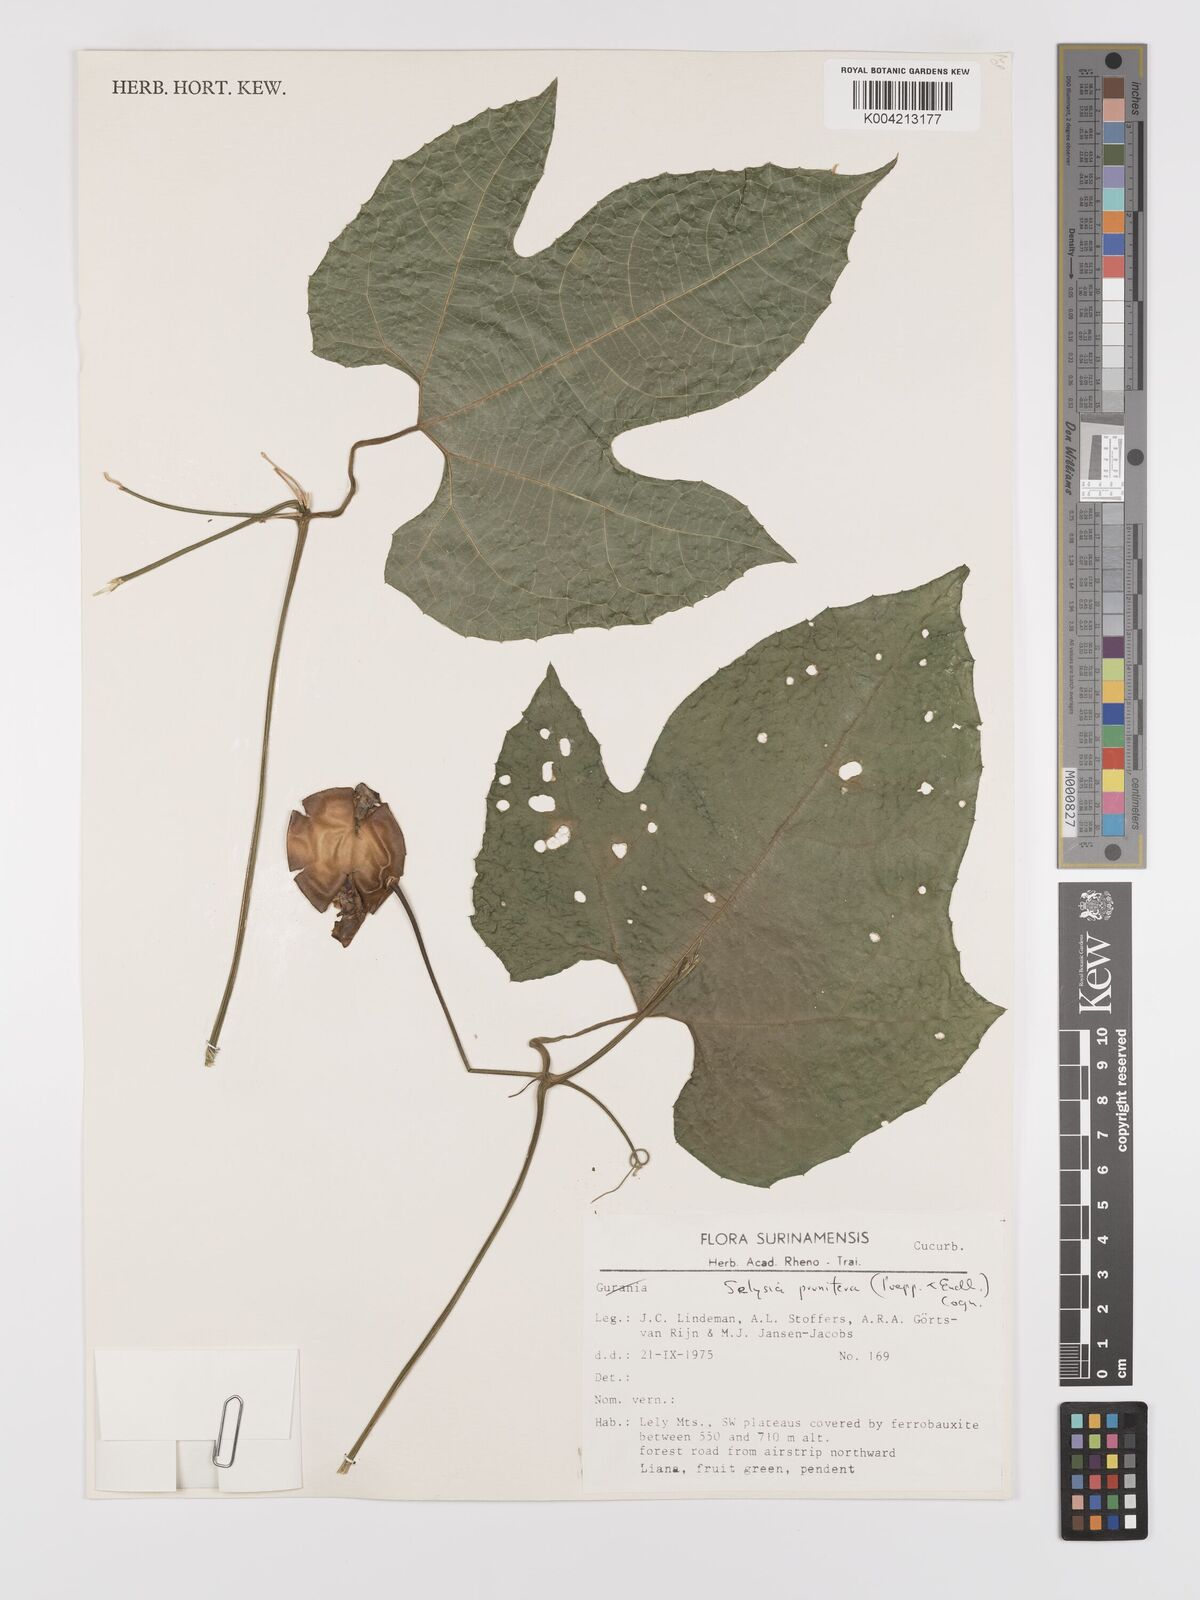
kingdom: Plantae
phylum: Tracheophyta
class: Magnoliopsida
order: Cucurbitales
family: Cucurbitaceae
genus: Cayaponia
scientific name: Cayaponia prunifera
